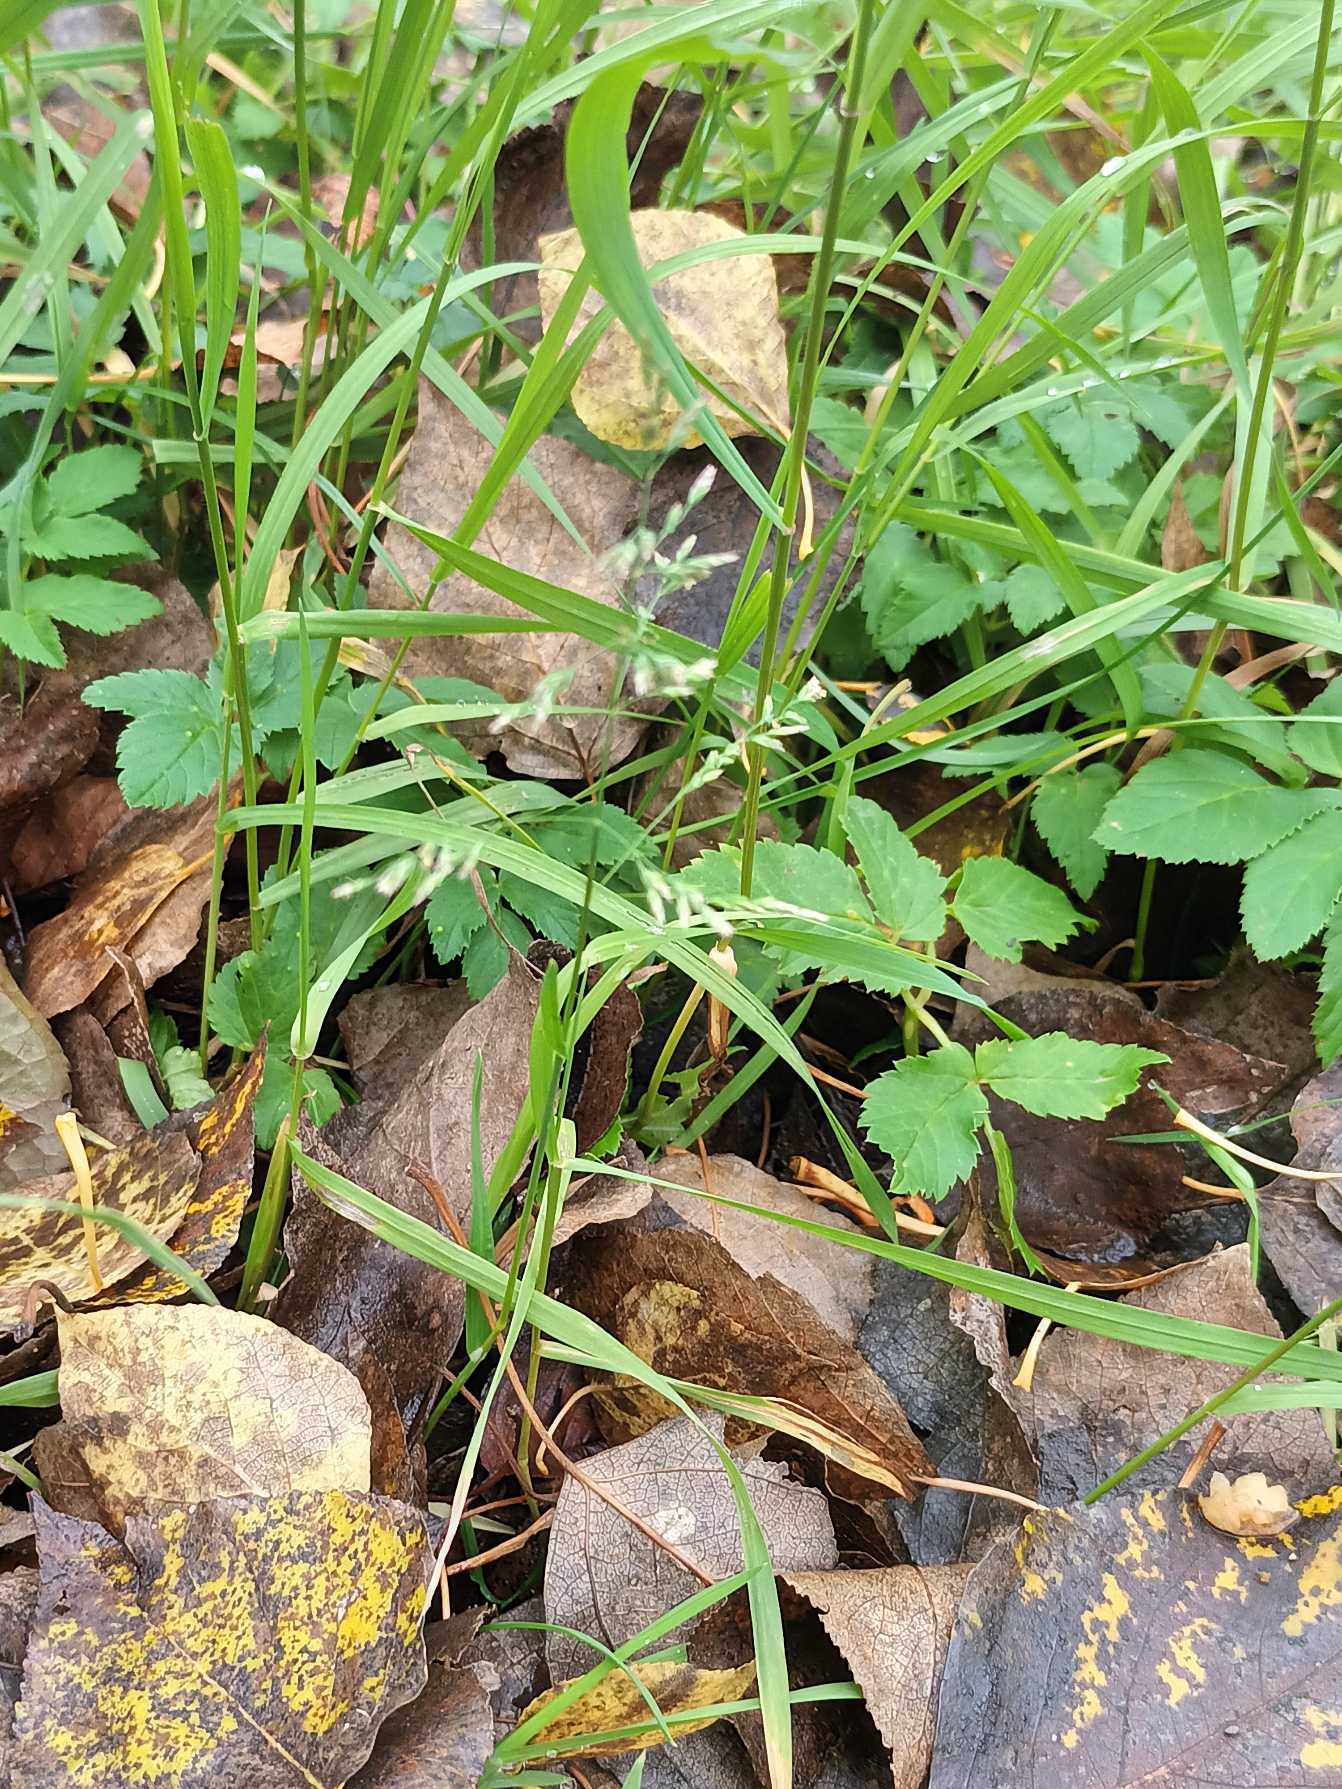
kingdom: Plantae
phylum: Tracheophyta
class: Liliopsida
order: Poales
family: Poaceae
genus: Poa
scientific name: Poa annua
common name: Enårig rapgræs
